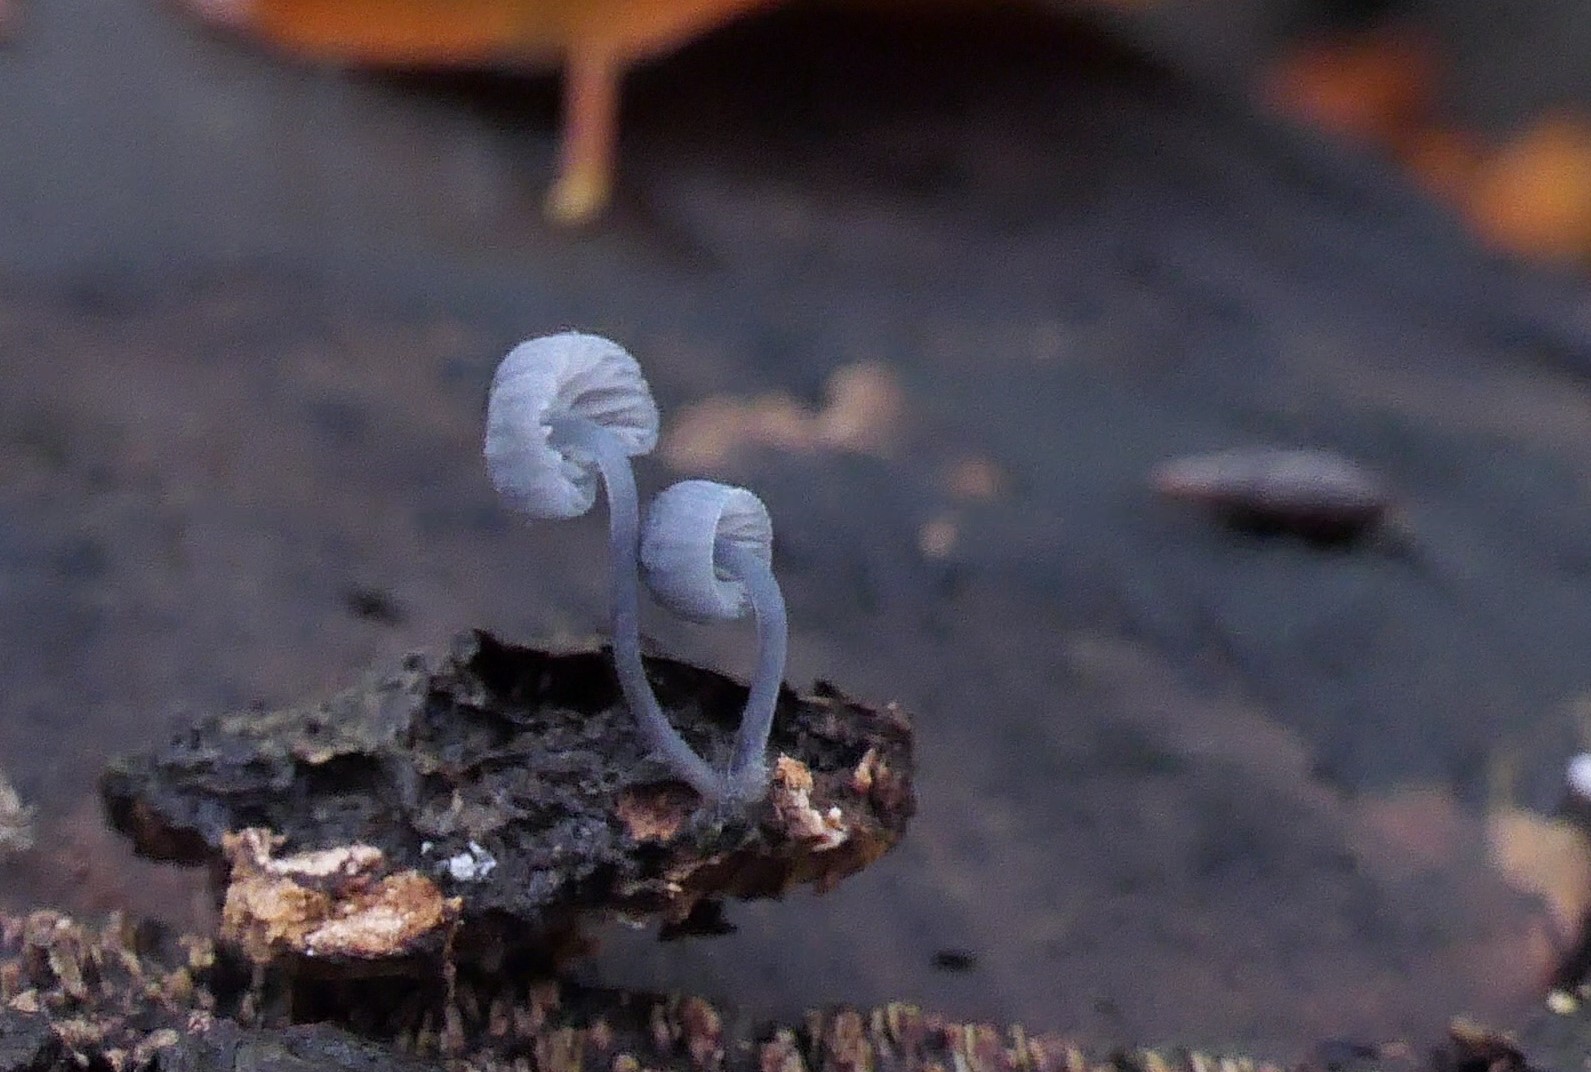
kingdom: Fungi
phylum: Basidiomycota
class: Agaricomycetes
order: Agaricales
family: Mycenaceae
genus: Mycena
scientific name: Mycena pseudocorticola
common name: gråblå bark-huesvamp
